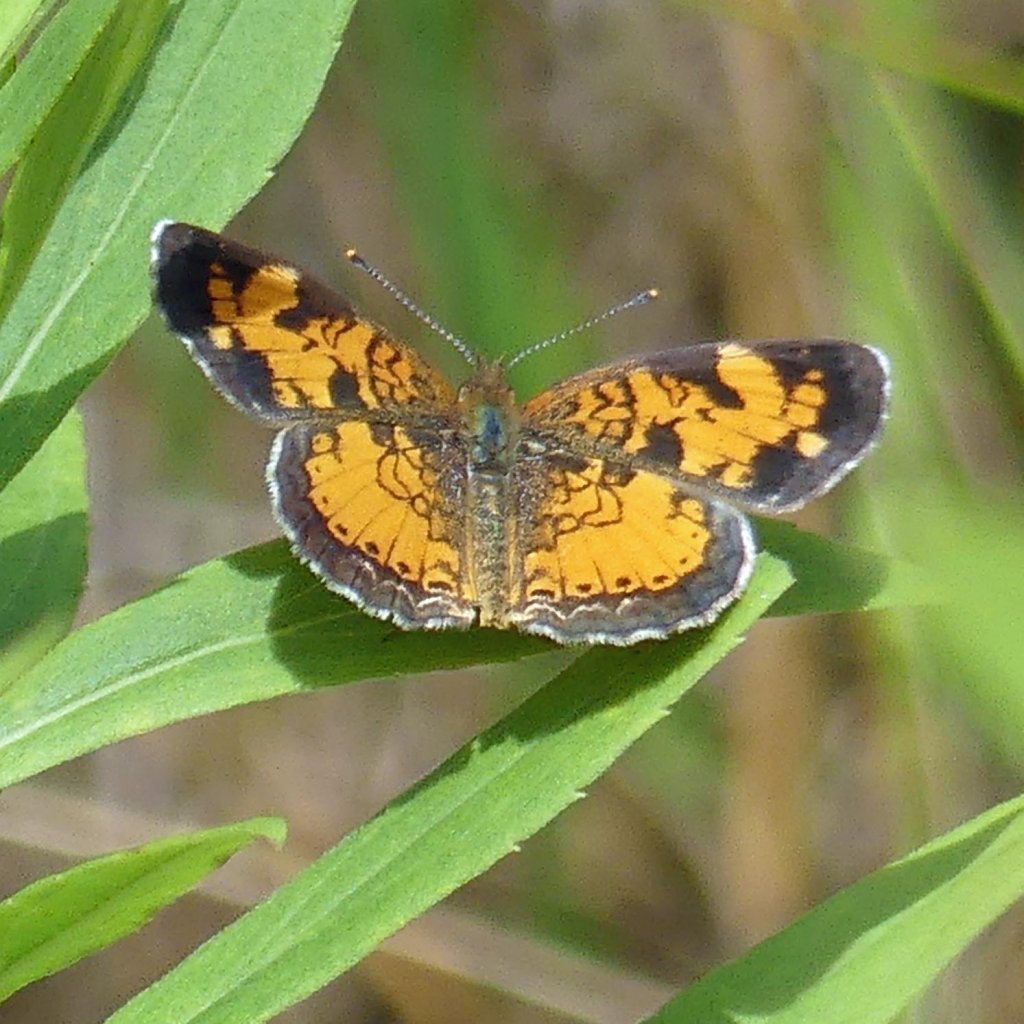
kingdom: Animalia
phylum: Arthropoda
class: Insecta
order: Lepidoptera
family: Nymphalidae
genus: Phyciodes
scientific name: Phyciodes tharos
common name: Northern Crescent
